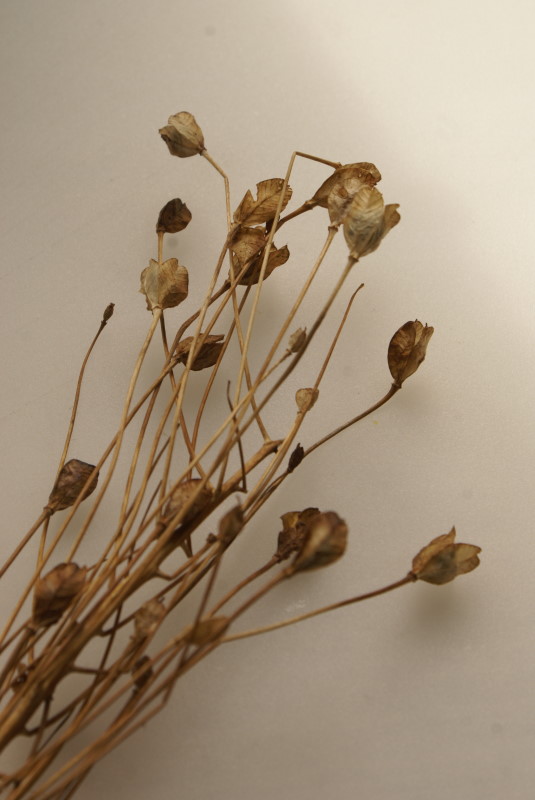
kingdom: Plantae
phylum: Tracheophyta
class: Liliopsida
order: Liliales
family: Liliaceae
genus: Tulipa
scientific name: Tulipa
